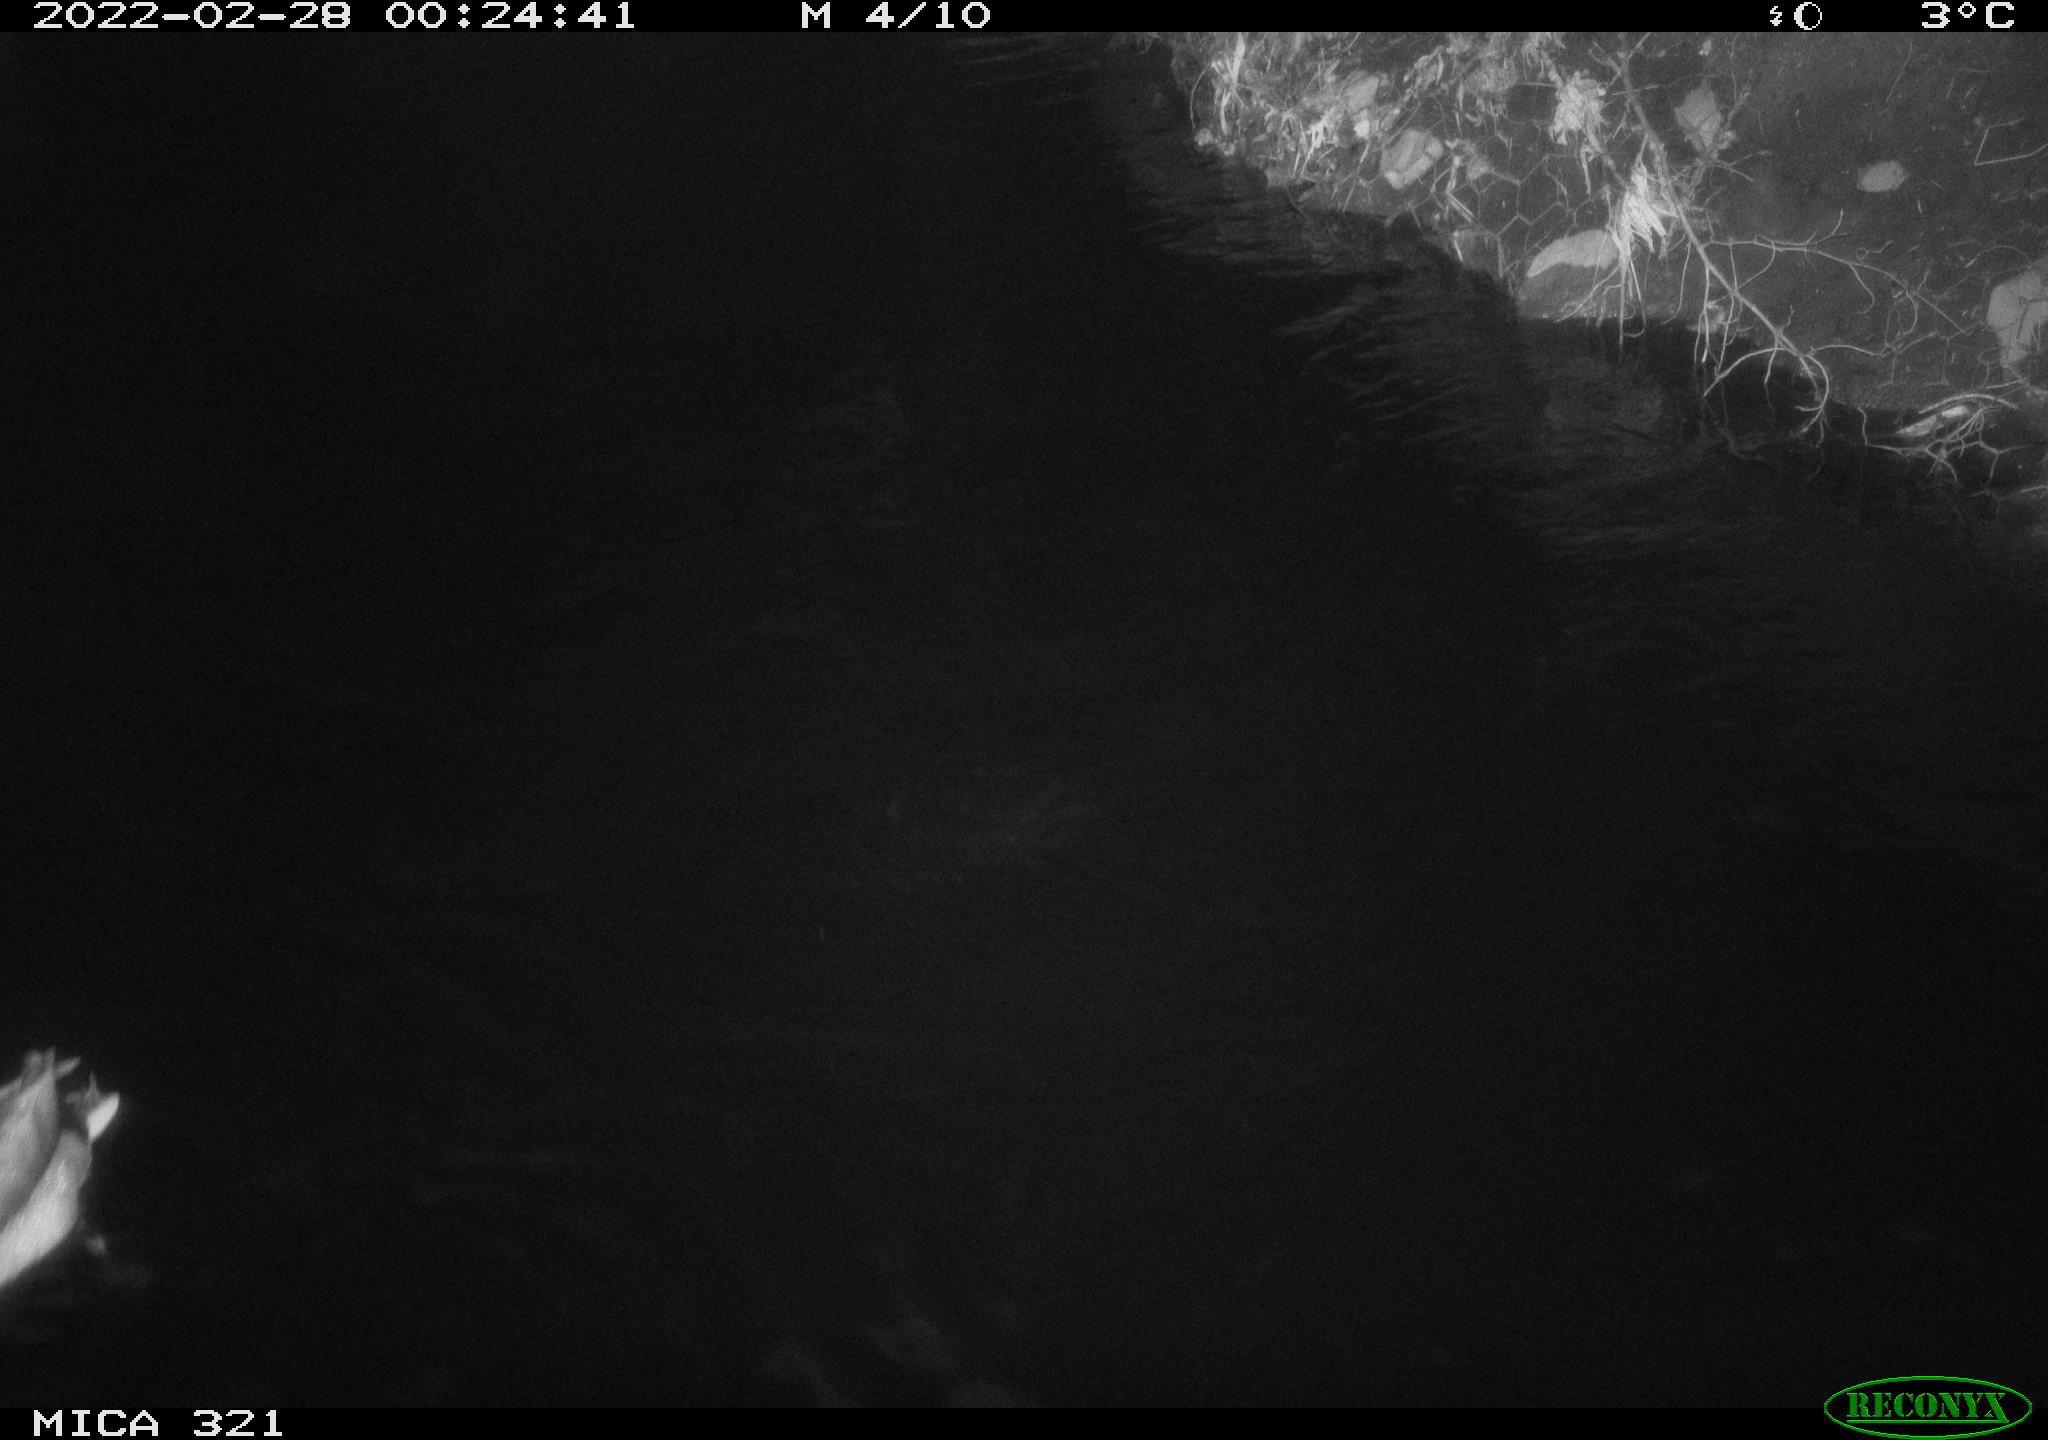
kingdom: Animalia
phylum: Chordata
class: Aves
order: Anseriformes
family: Anatidae
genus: Anas
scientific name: Anas platyrhynchos
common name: Mallard
